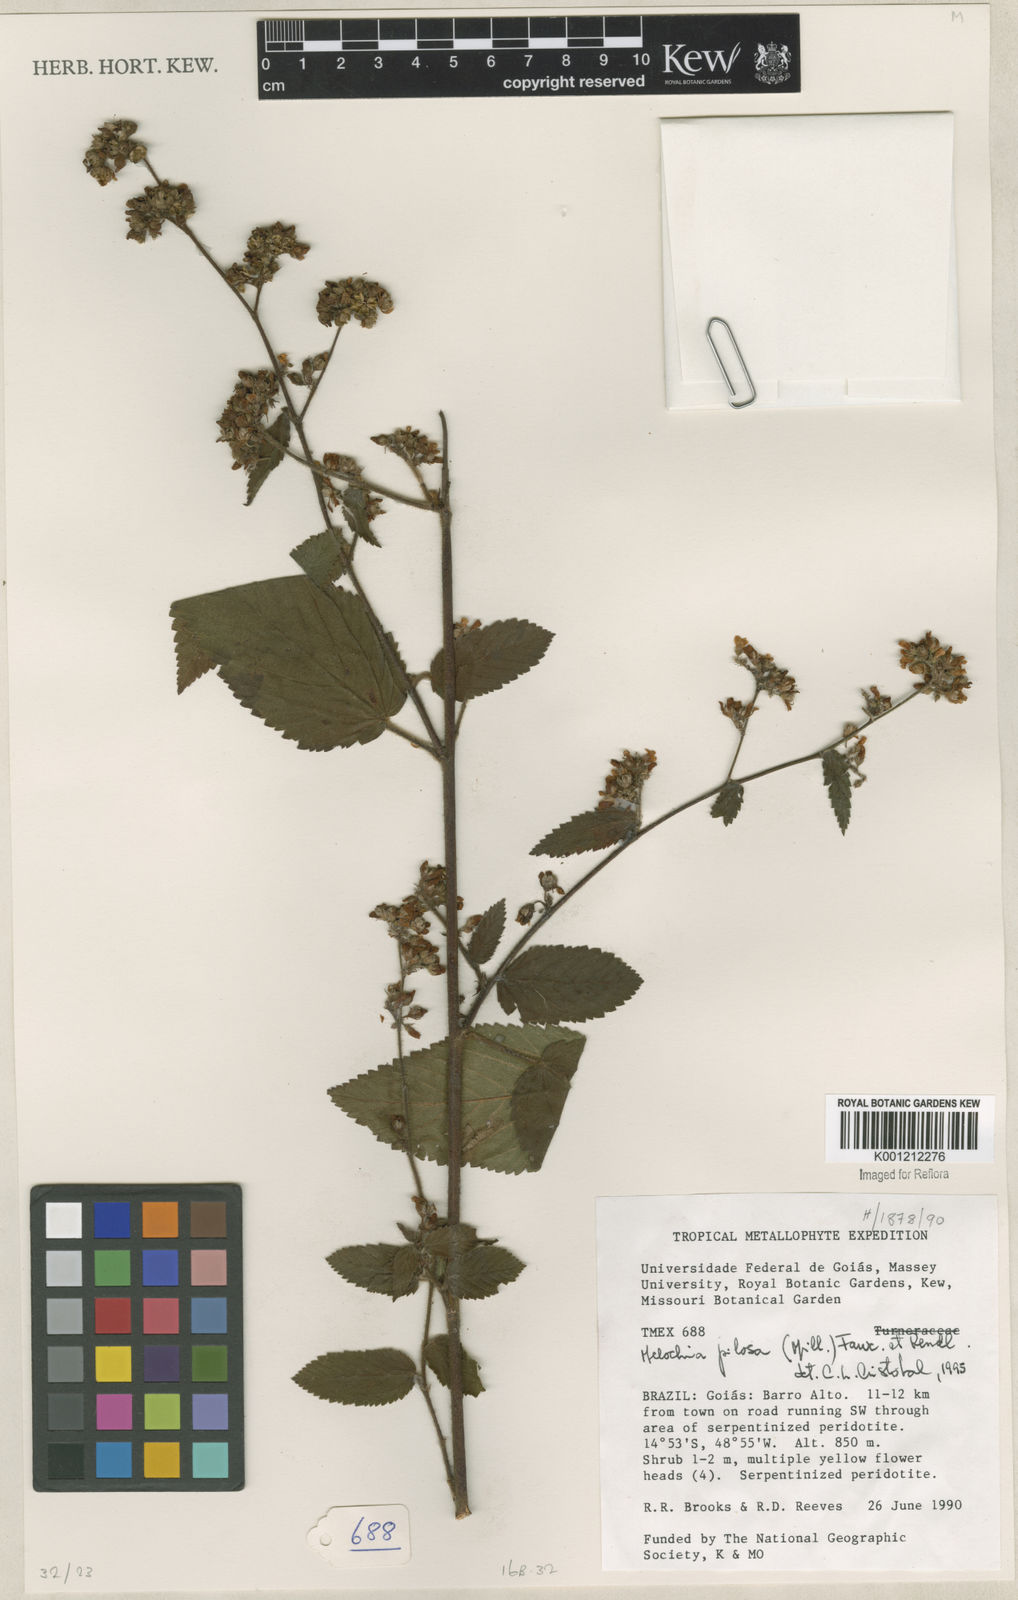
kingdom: Plantae
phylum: Tracheophyta
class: Magnoliopsida
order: Malvales
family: Malvaceae
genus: Melochia
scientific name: Melochia pilosa
